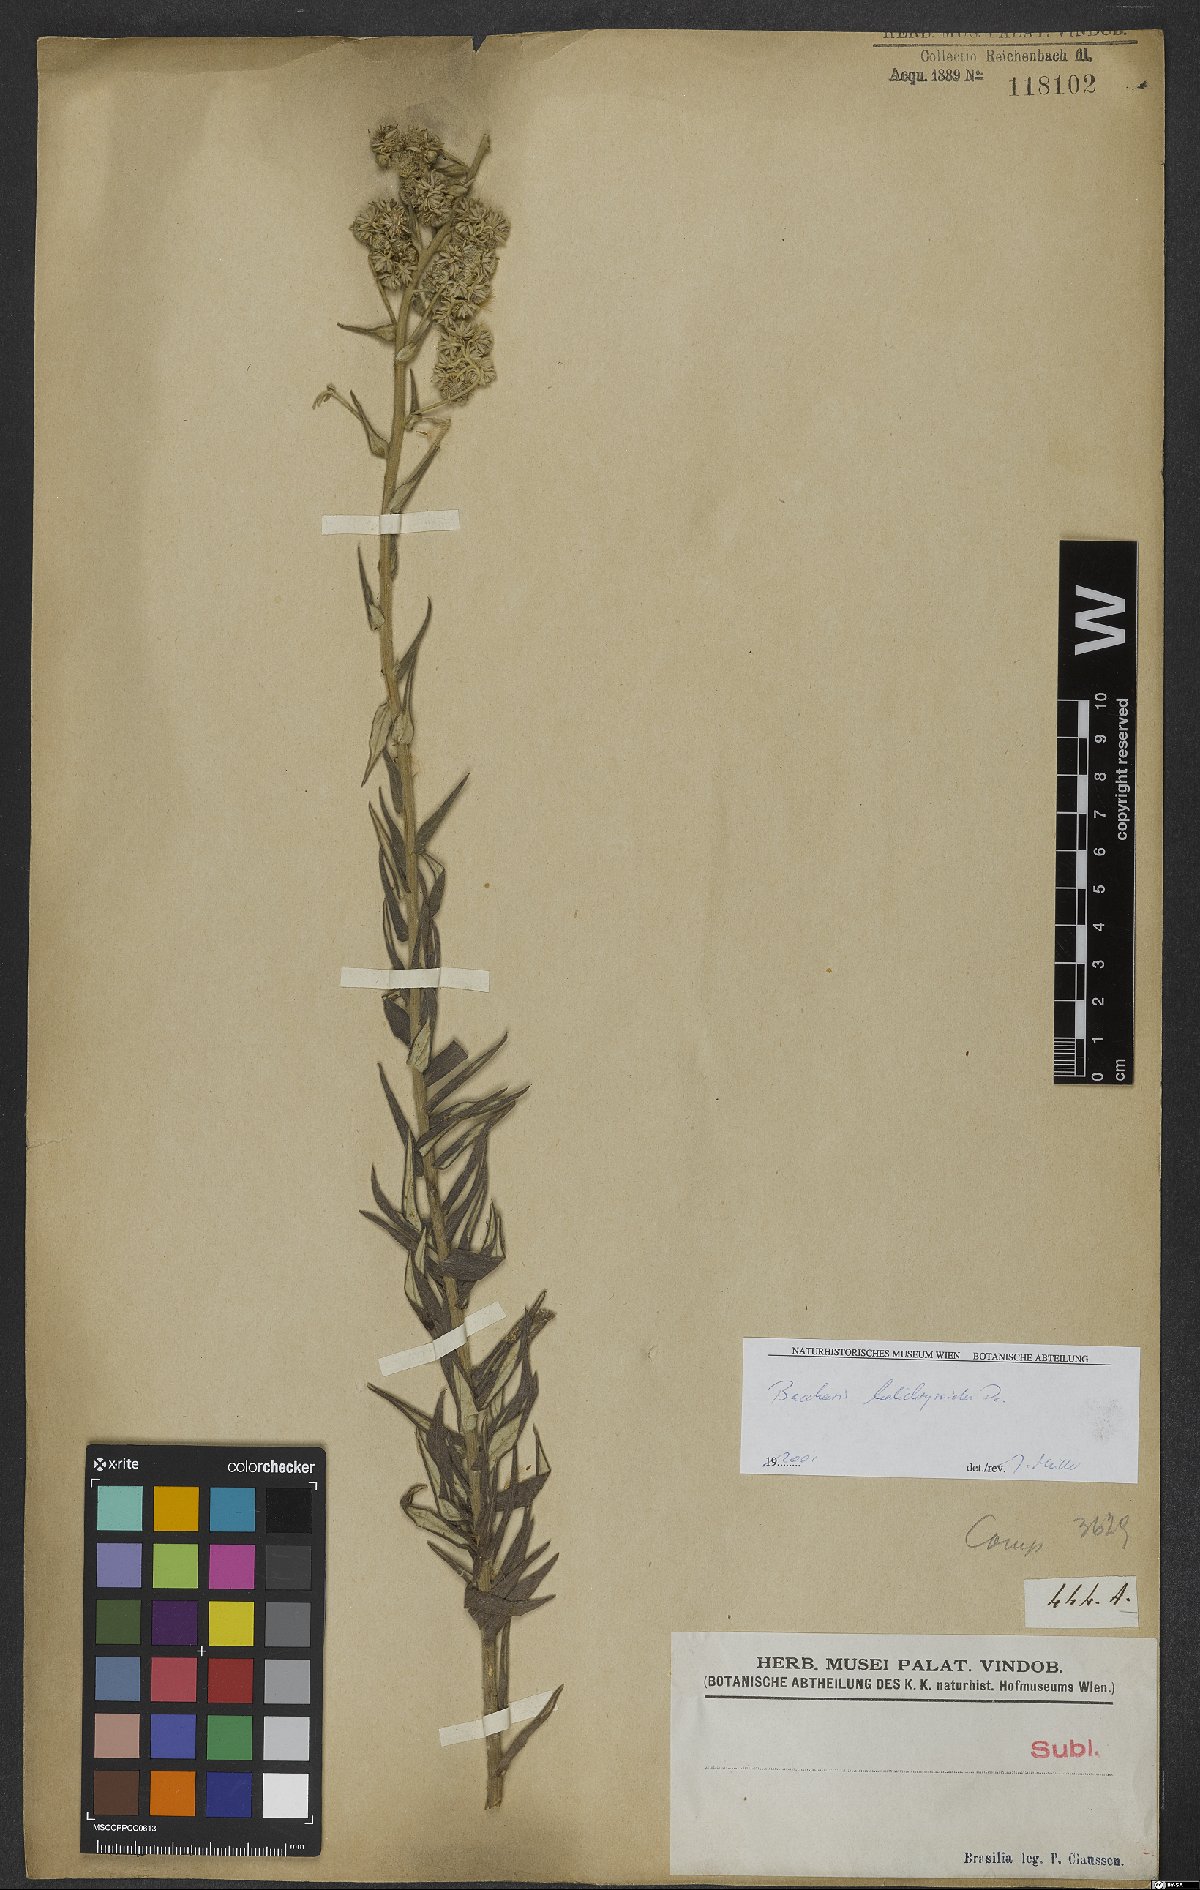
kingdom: Plantae
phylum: Tracheophyta
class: Magnoliopsida
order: Asterales
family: Asteraceae
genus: Baccharis
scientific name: Baccharis helichrysoides
